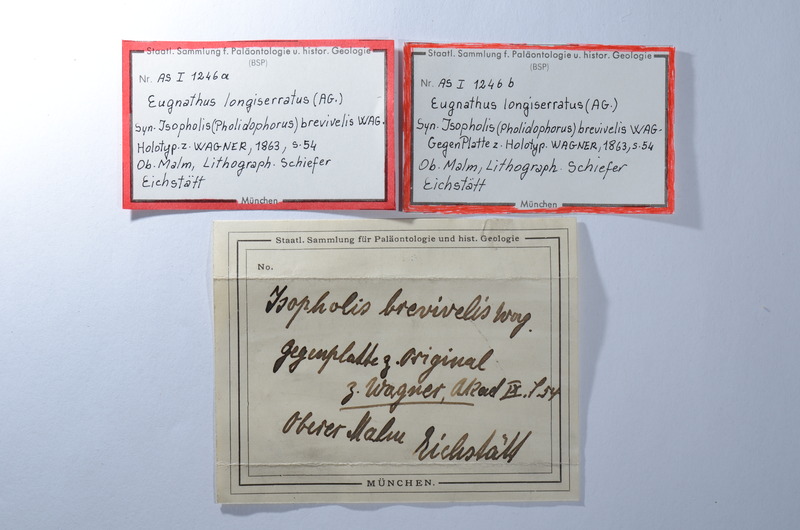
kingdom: Animalia
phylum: Chordata
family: Ophiopsiellidae
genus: Furo
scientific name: Furo longiserratus
